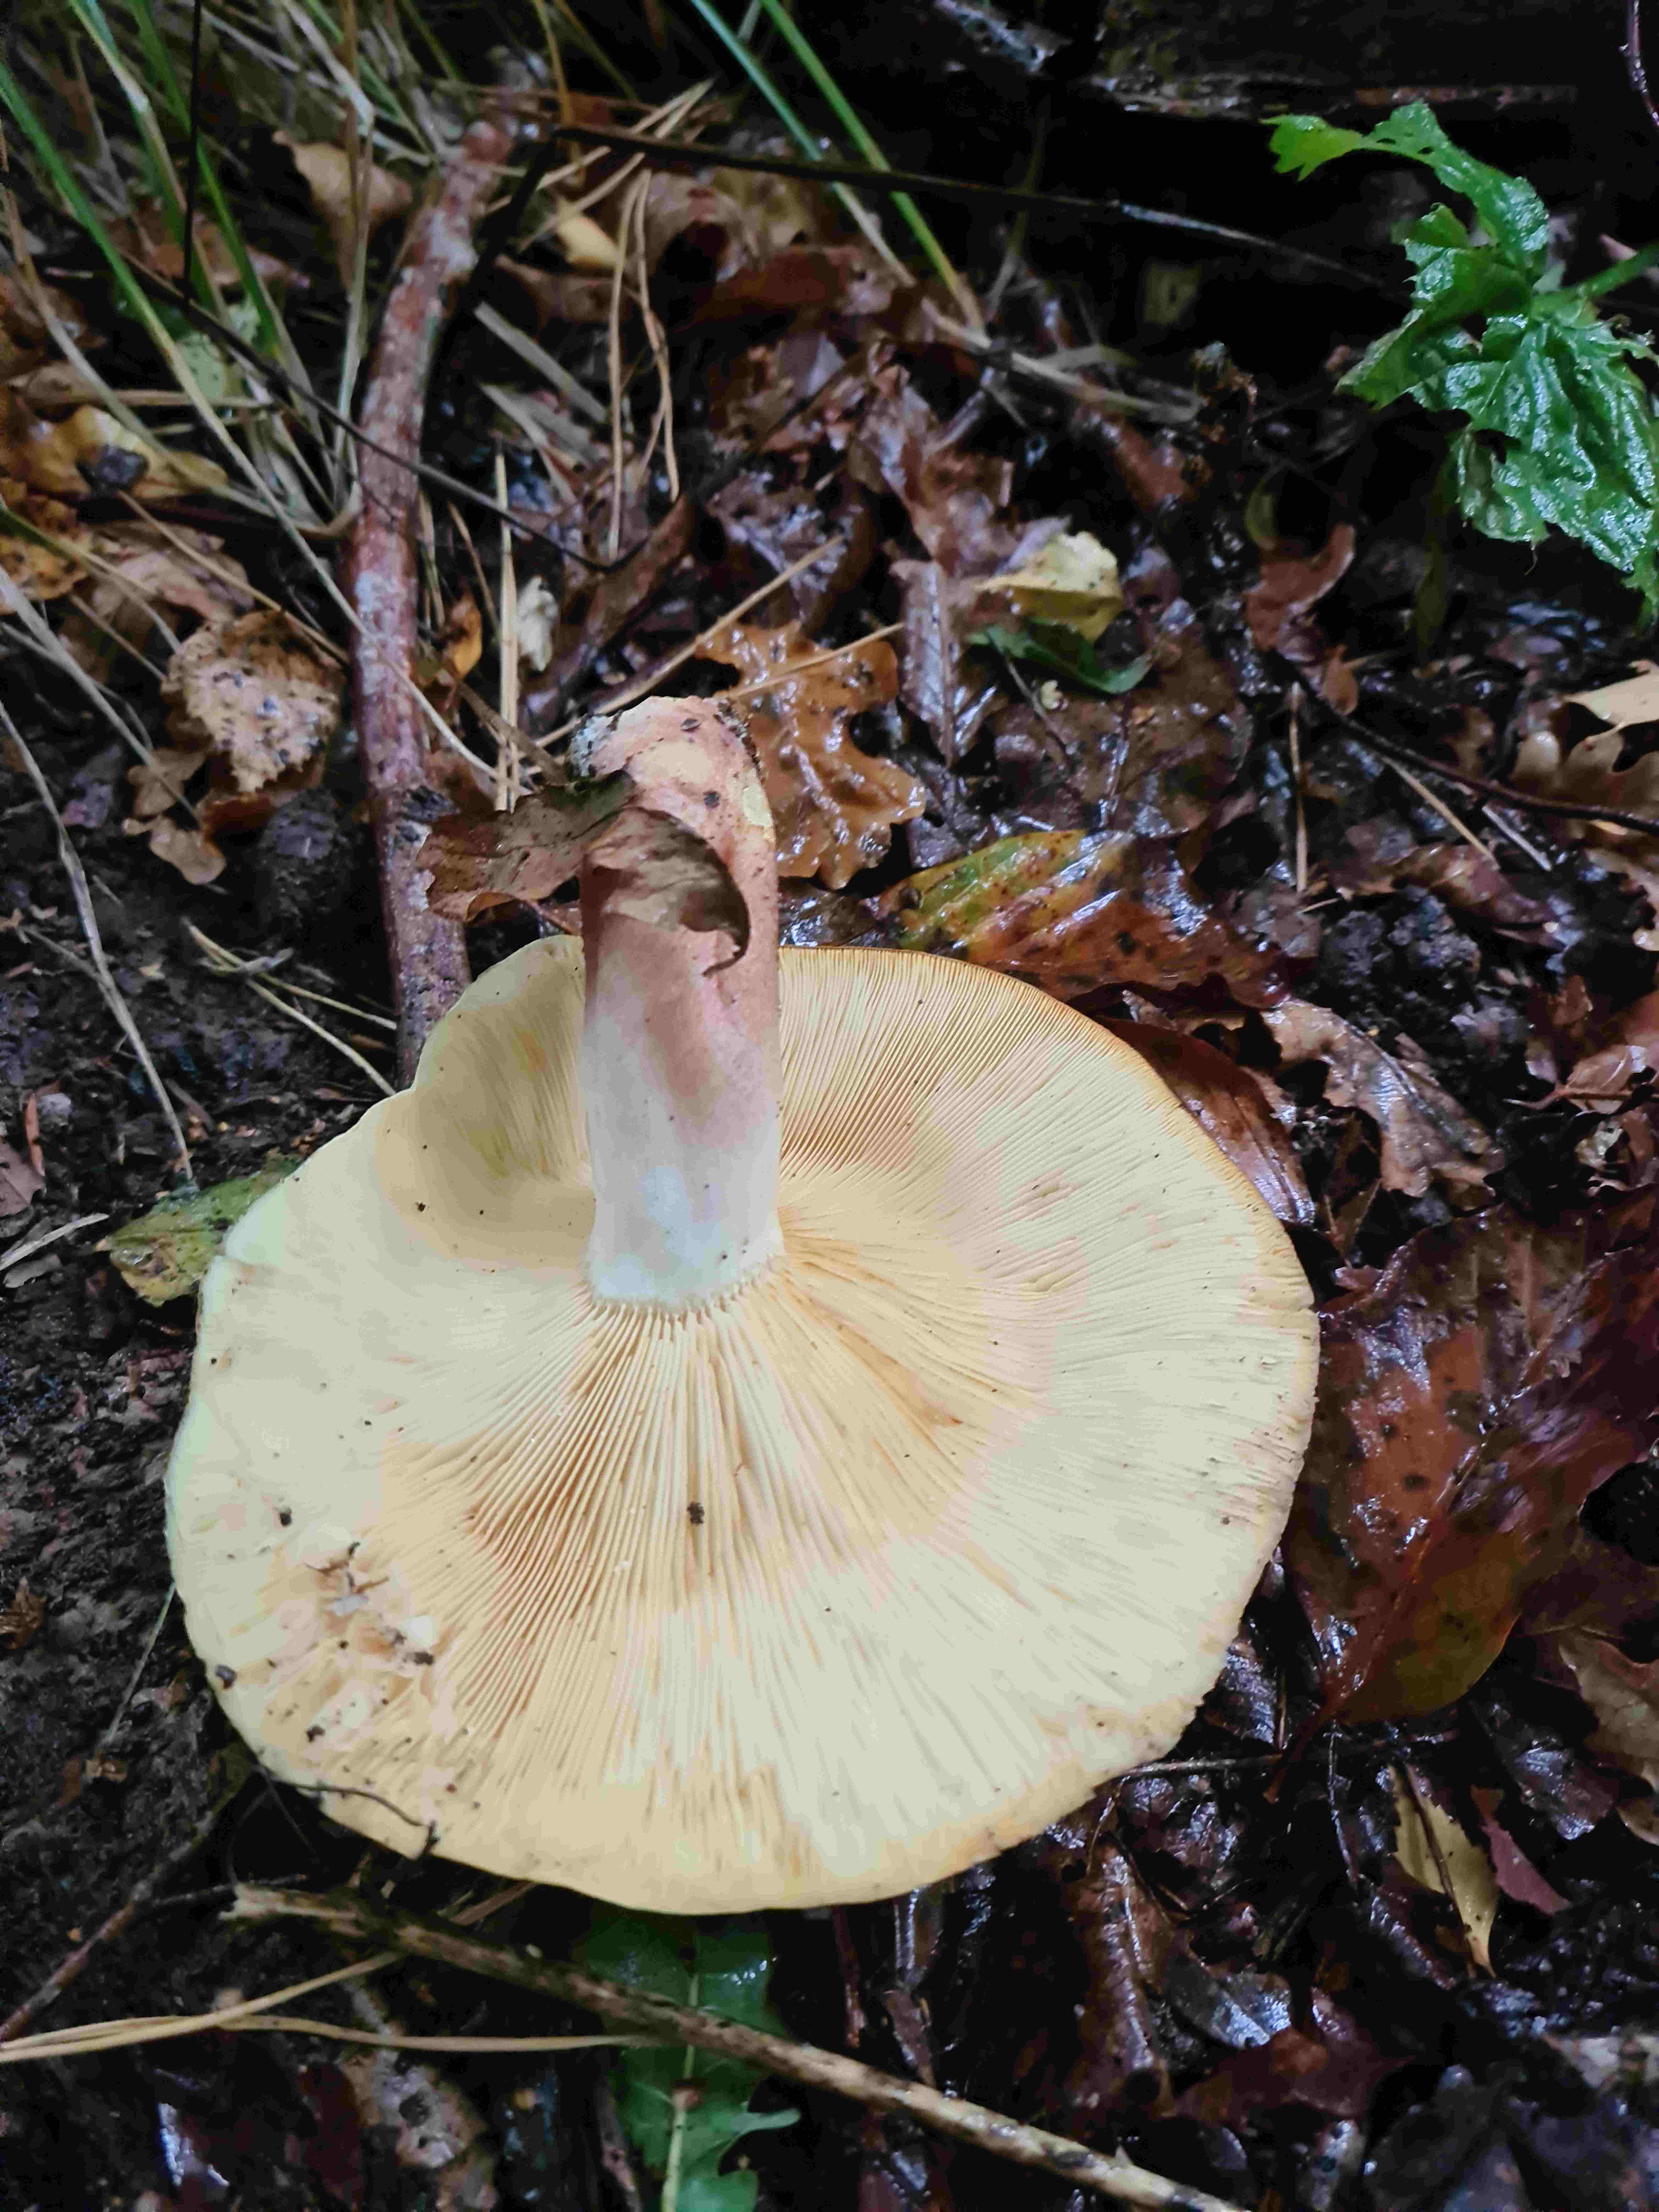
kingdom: Fungi
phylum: Basidiomycota
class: Agaricomycetes
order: Agaricales
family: Tricholomataceae
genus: Tricholomopsis
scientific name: Tricholomopsis rutilans
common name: purpur-væbnerhat
